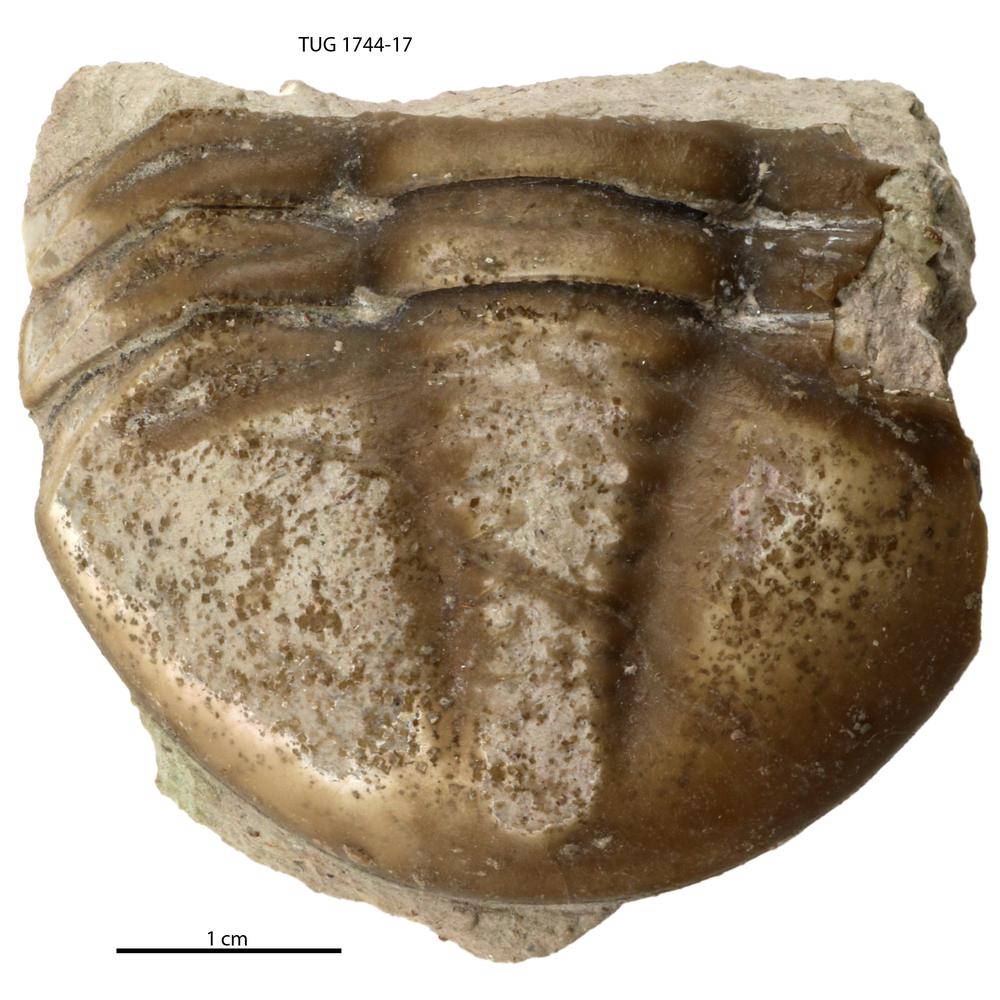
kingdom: Animalia
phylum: Arthropoda
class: Trilobita
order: Asaphida
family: Asaphidae
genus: Asaphus
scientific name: Asaphus expansus
